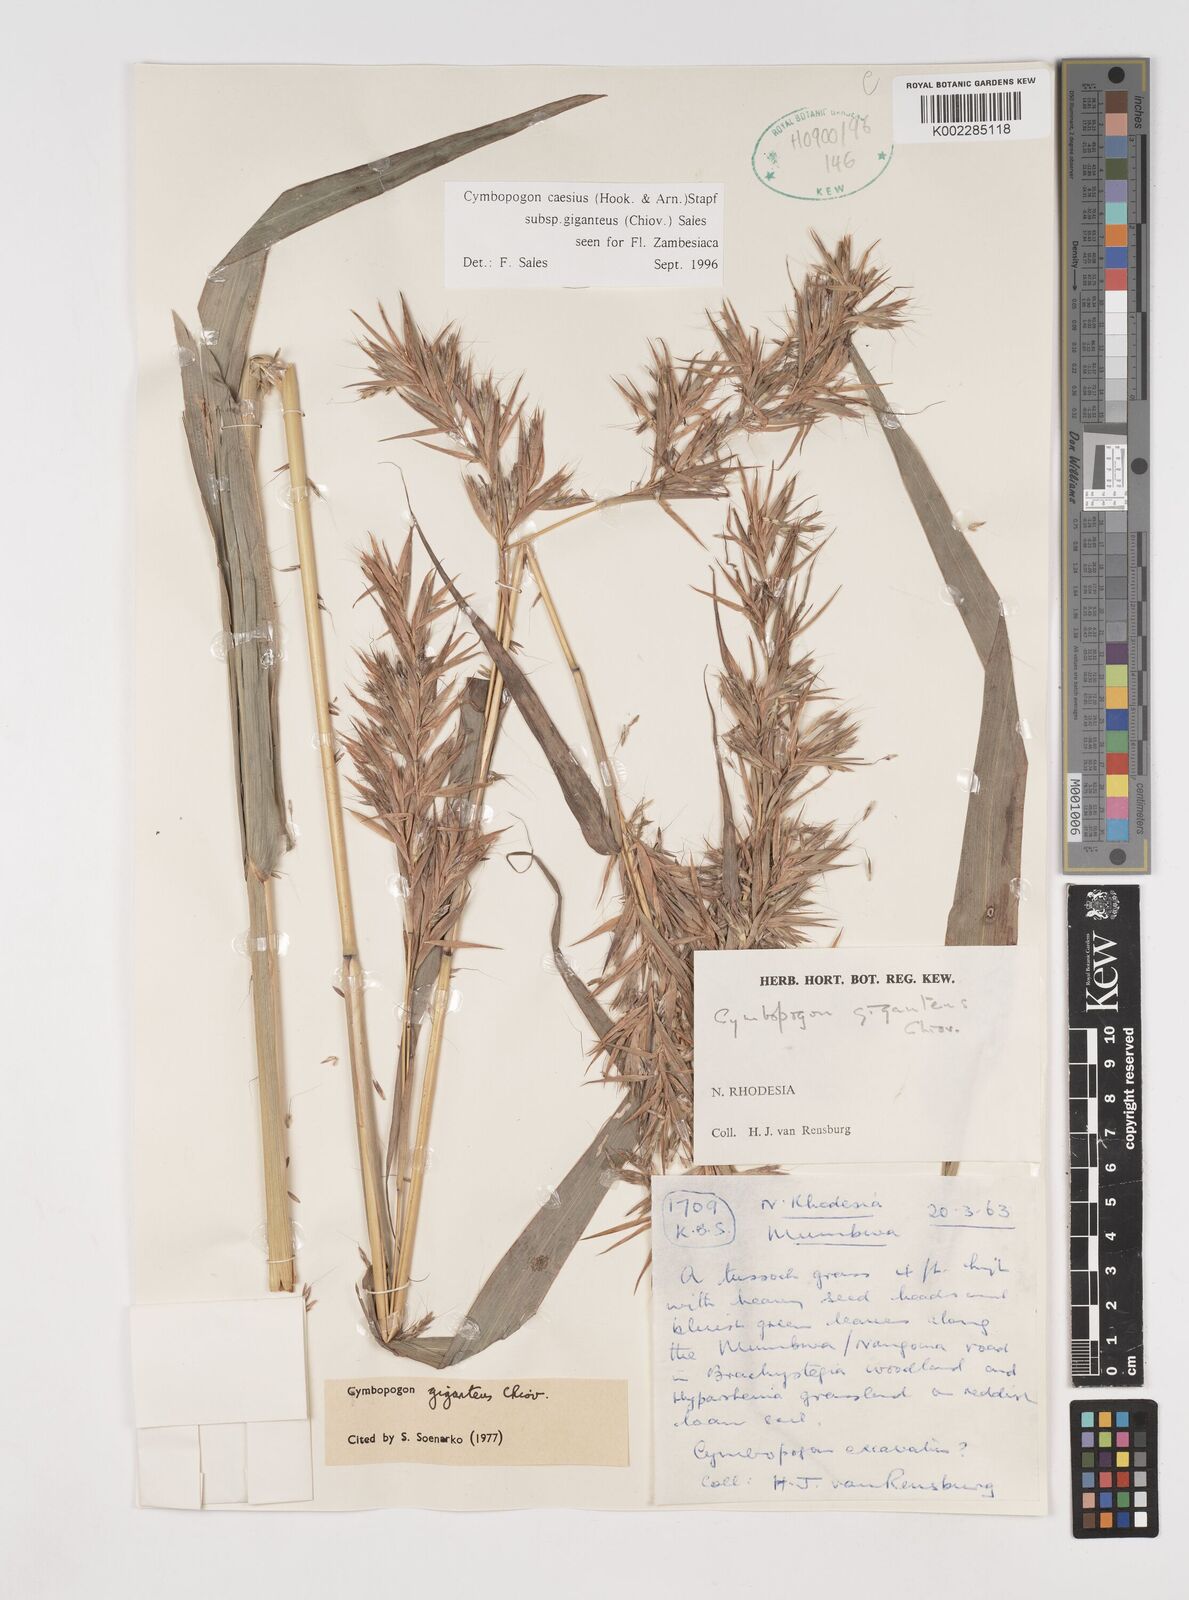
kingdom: Plantae
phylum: Tracheophyta
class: Liliopsida
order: Poales
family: Poaceae
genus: Cymbopogon
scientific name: Cymbopogon giganteus
